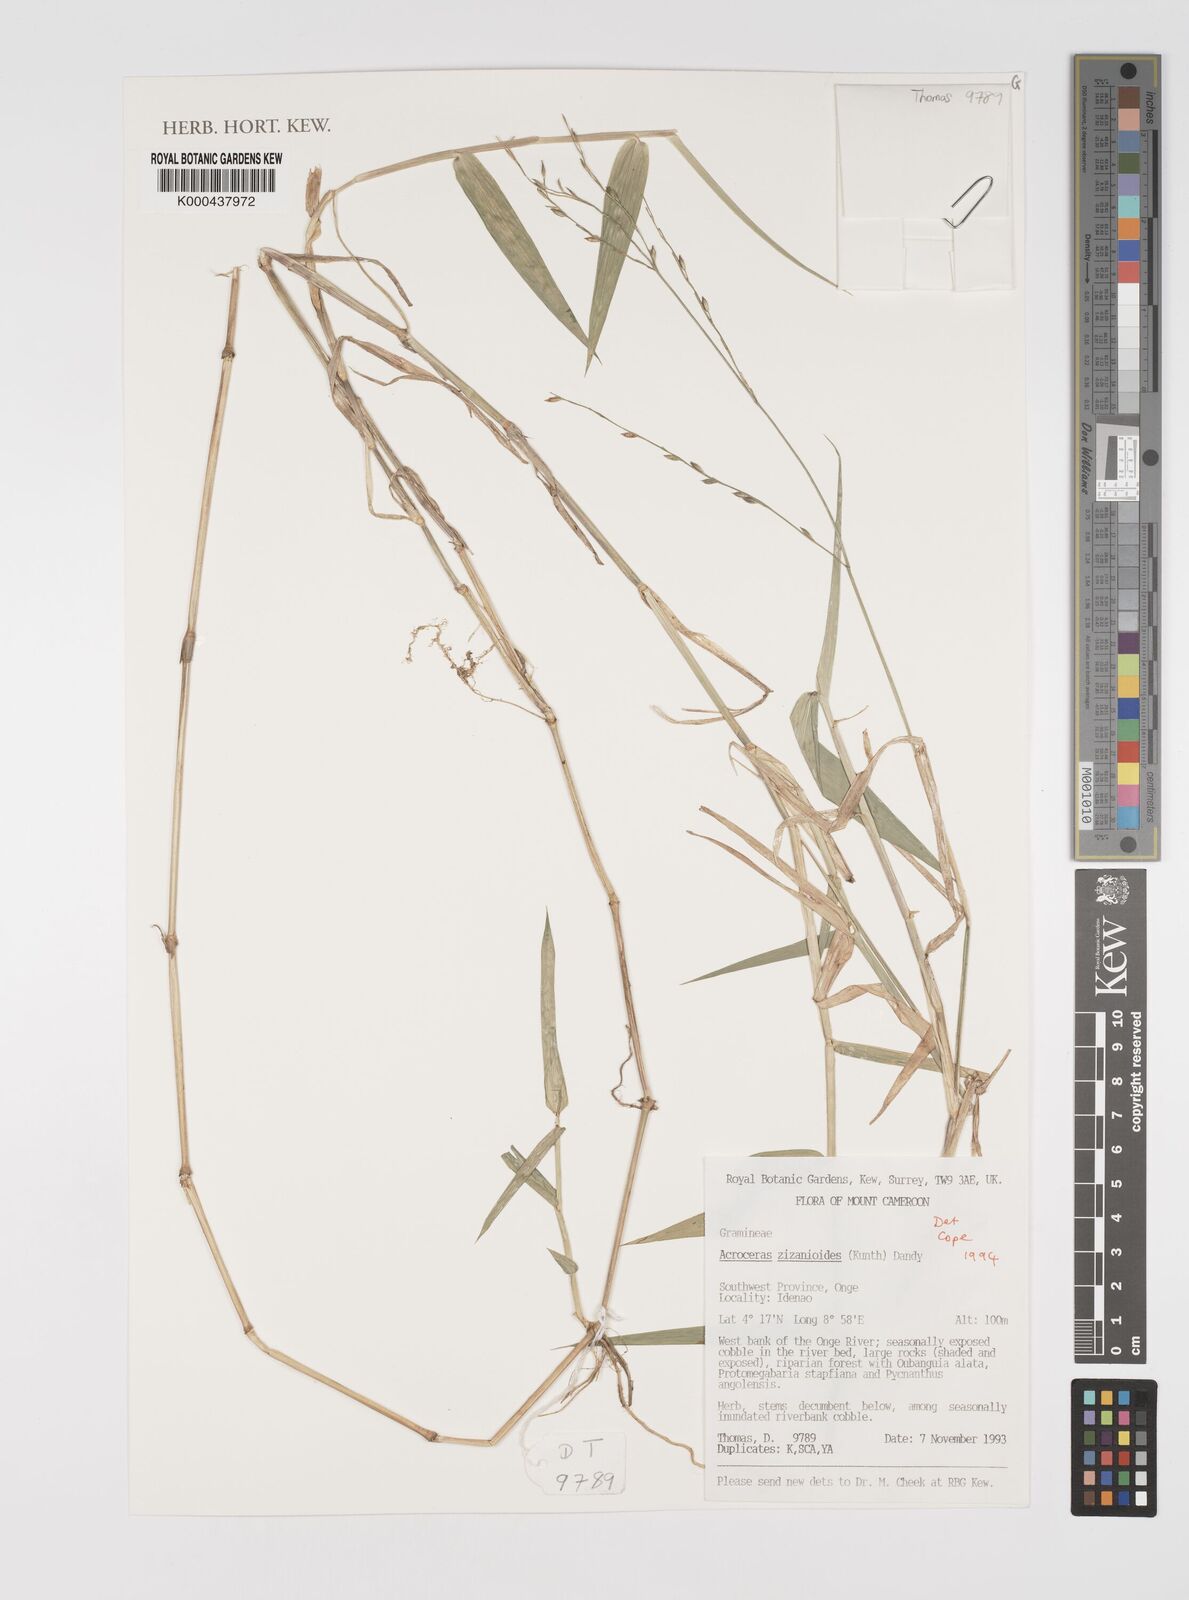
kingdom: Plantae
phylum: Tracheophyta
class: Liliopsida
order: Poales
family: Poaceae
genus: Acroceras
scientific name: Acroceras zizanioides
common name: Oat grass
